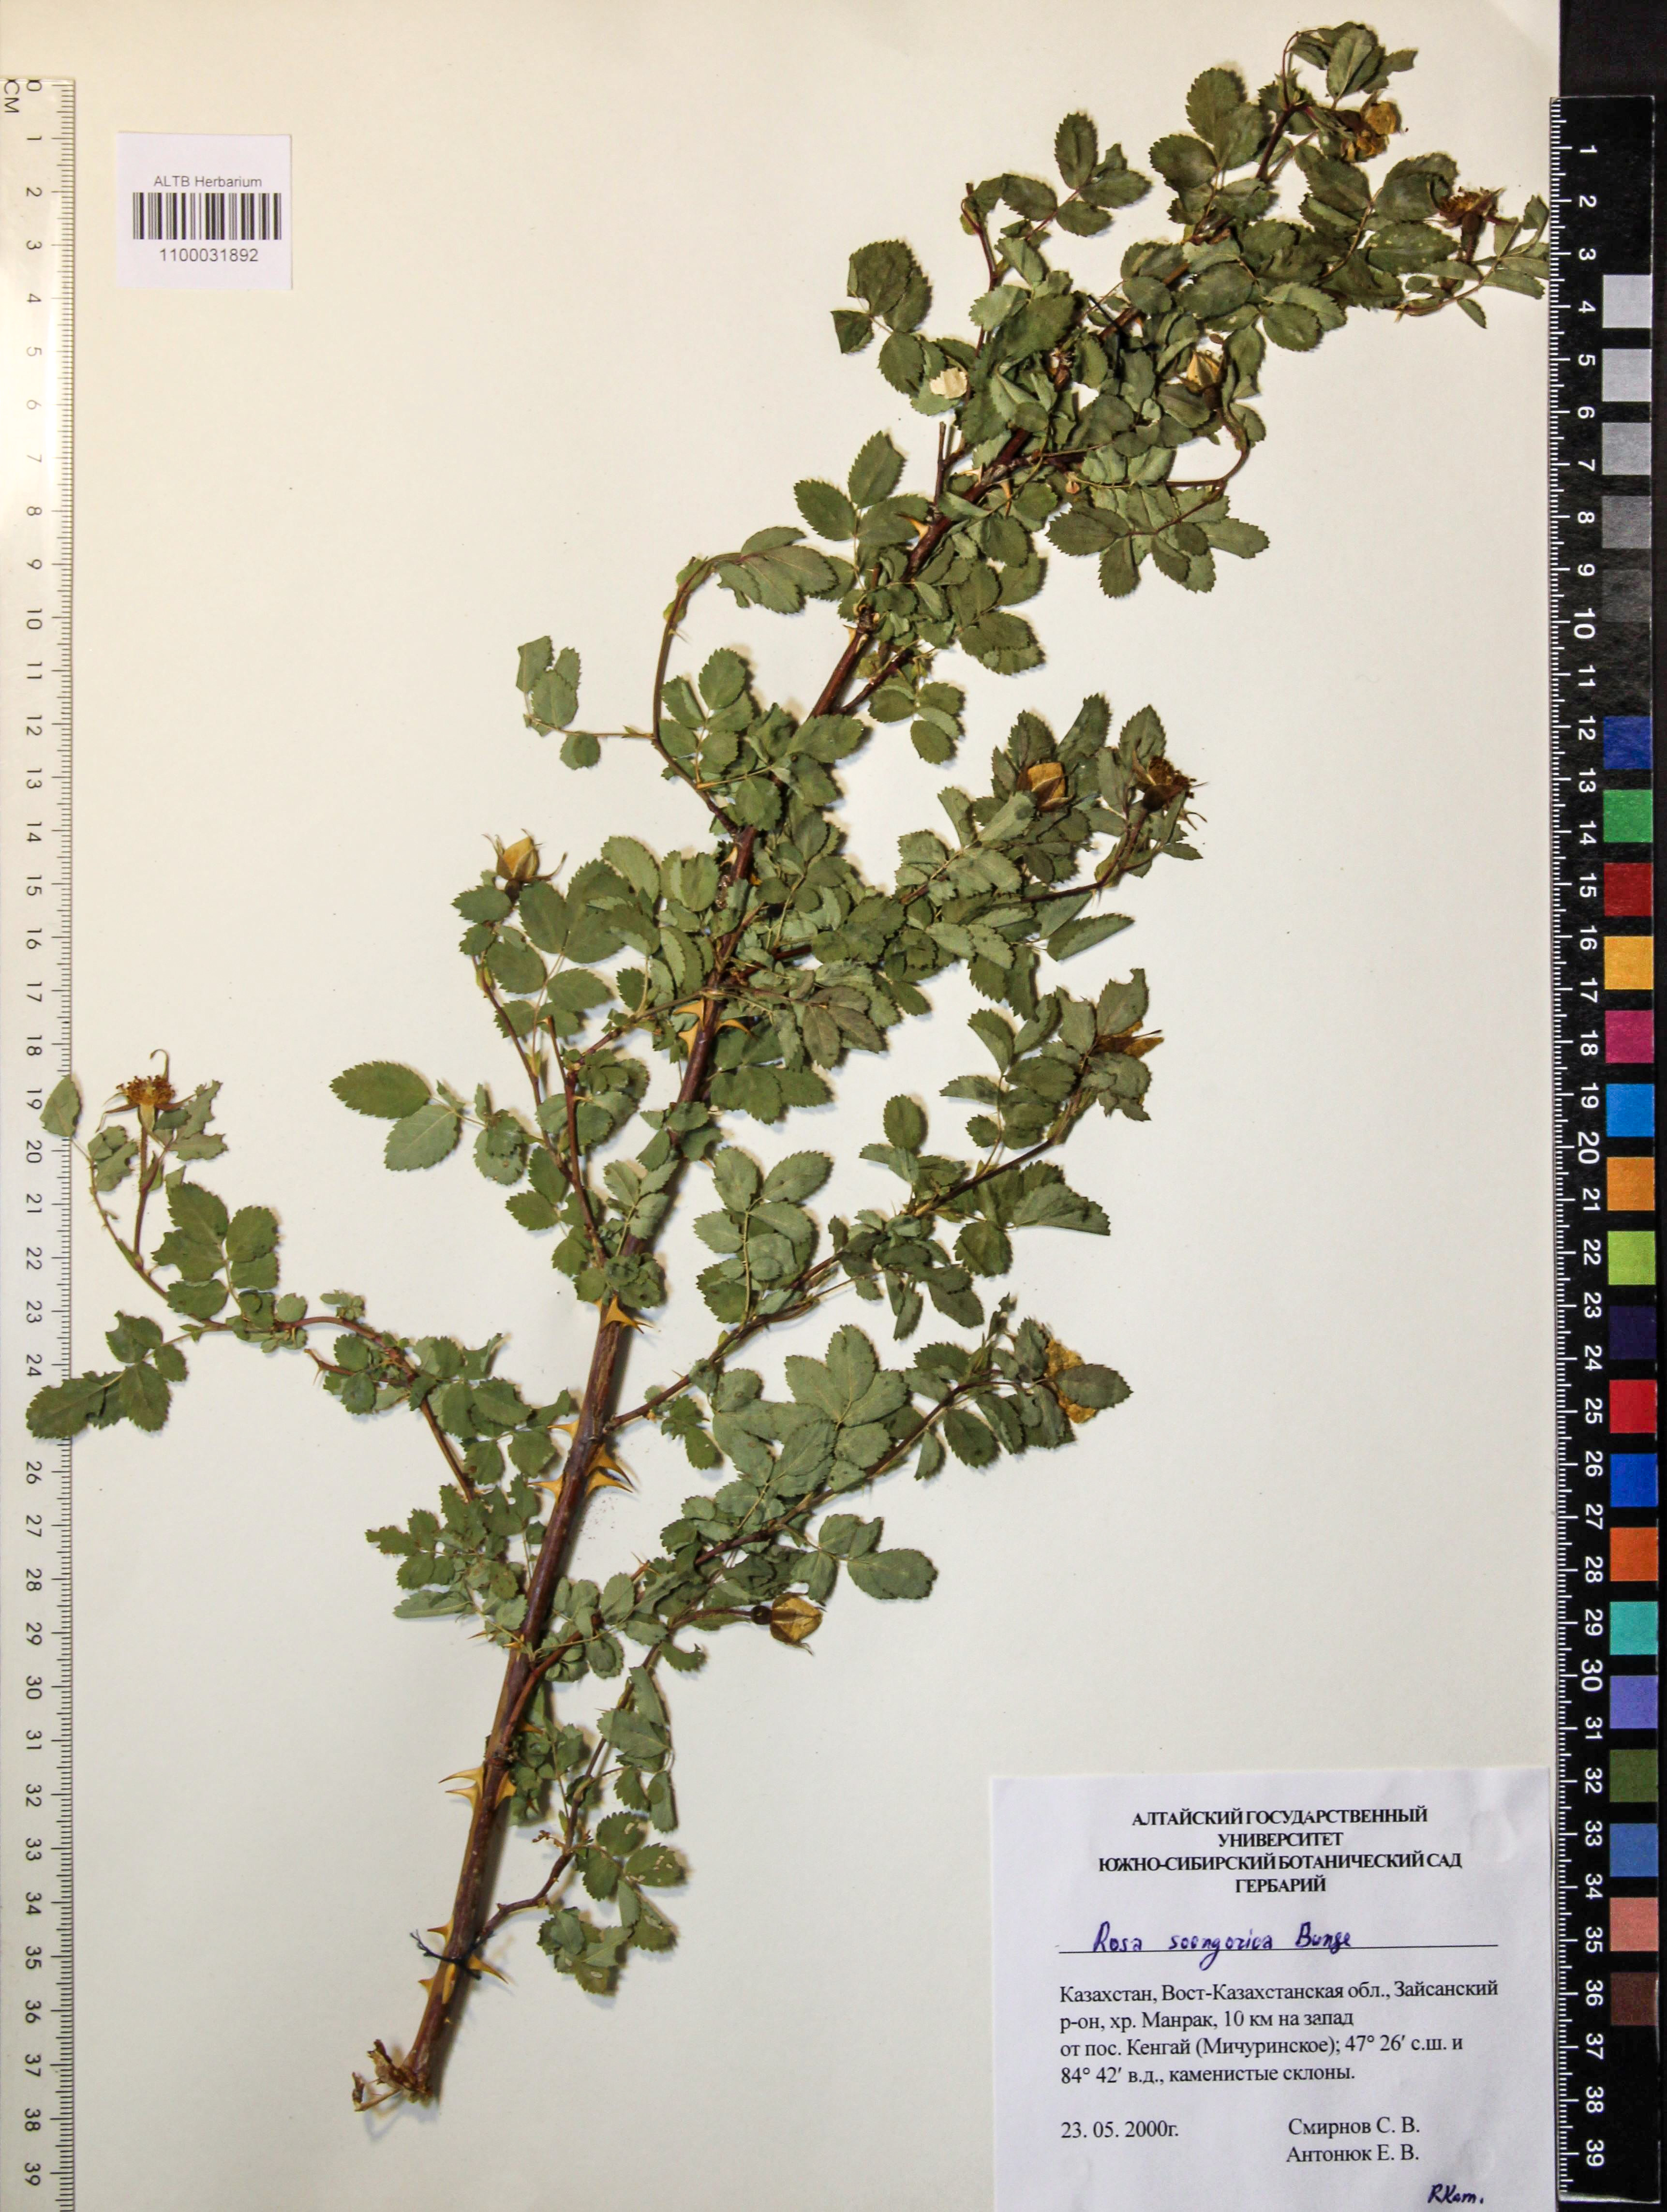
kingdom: Plantae
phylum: Tracheophyta
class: Magnoliopsida
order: Rosales
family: Rosaceae
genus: Rosa
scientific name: Rosa laxa
